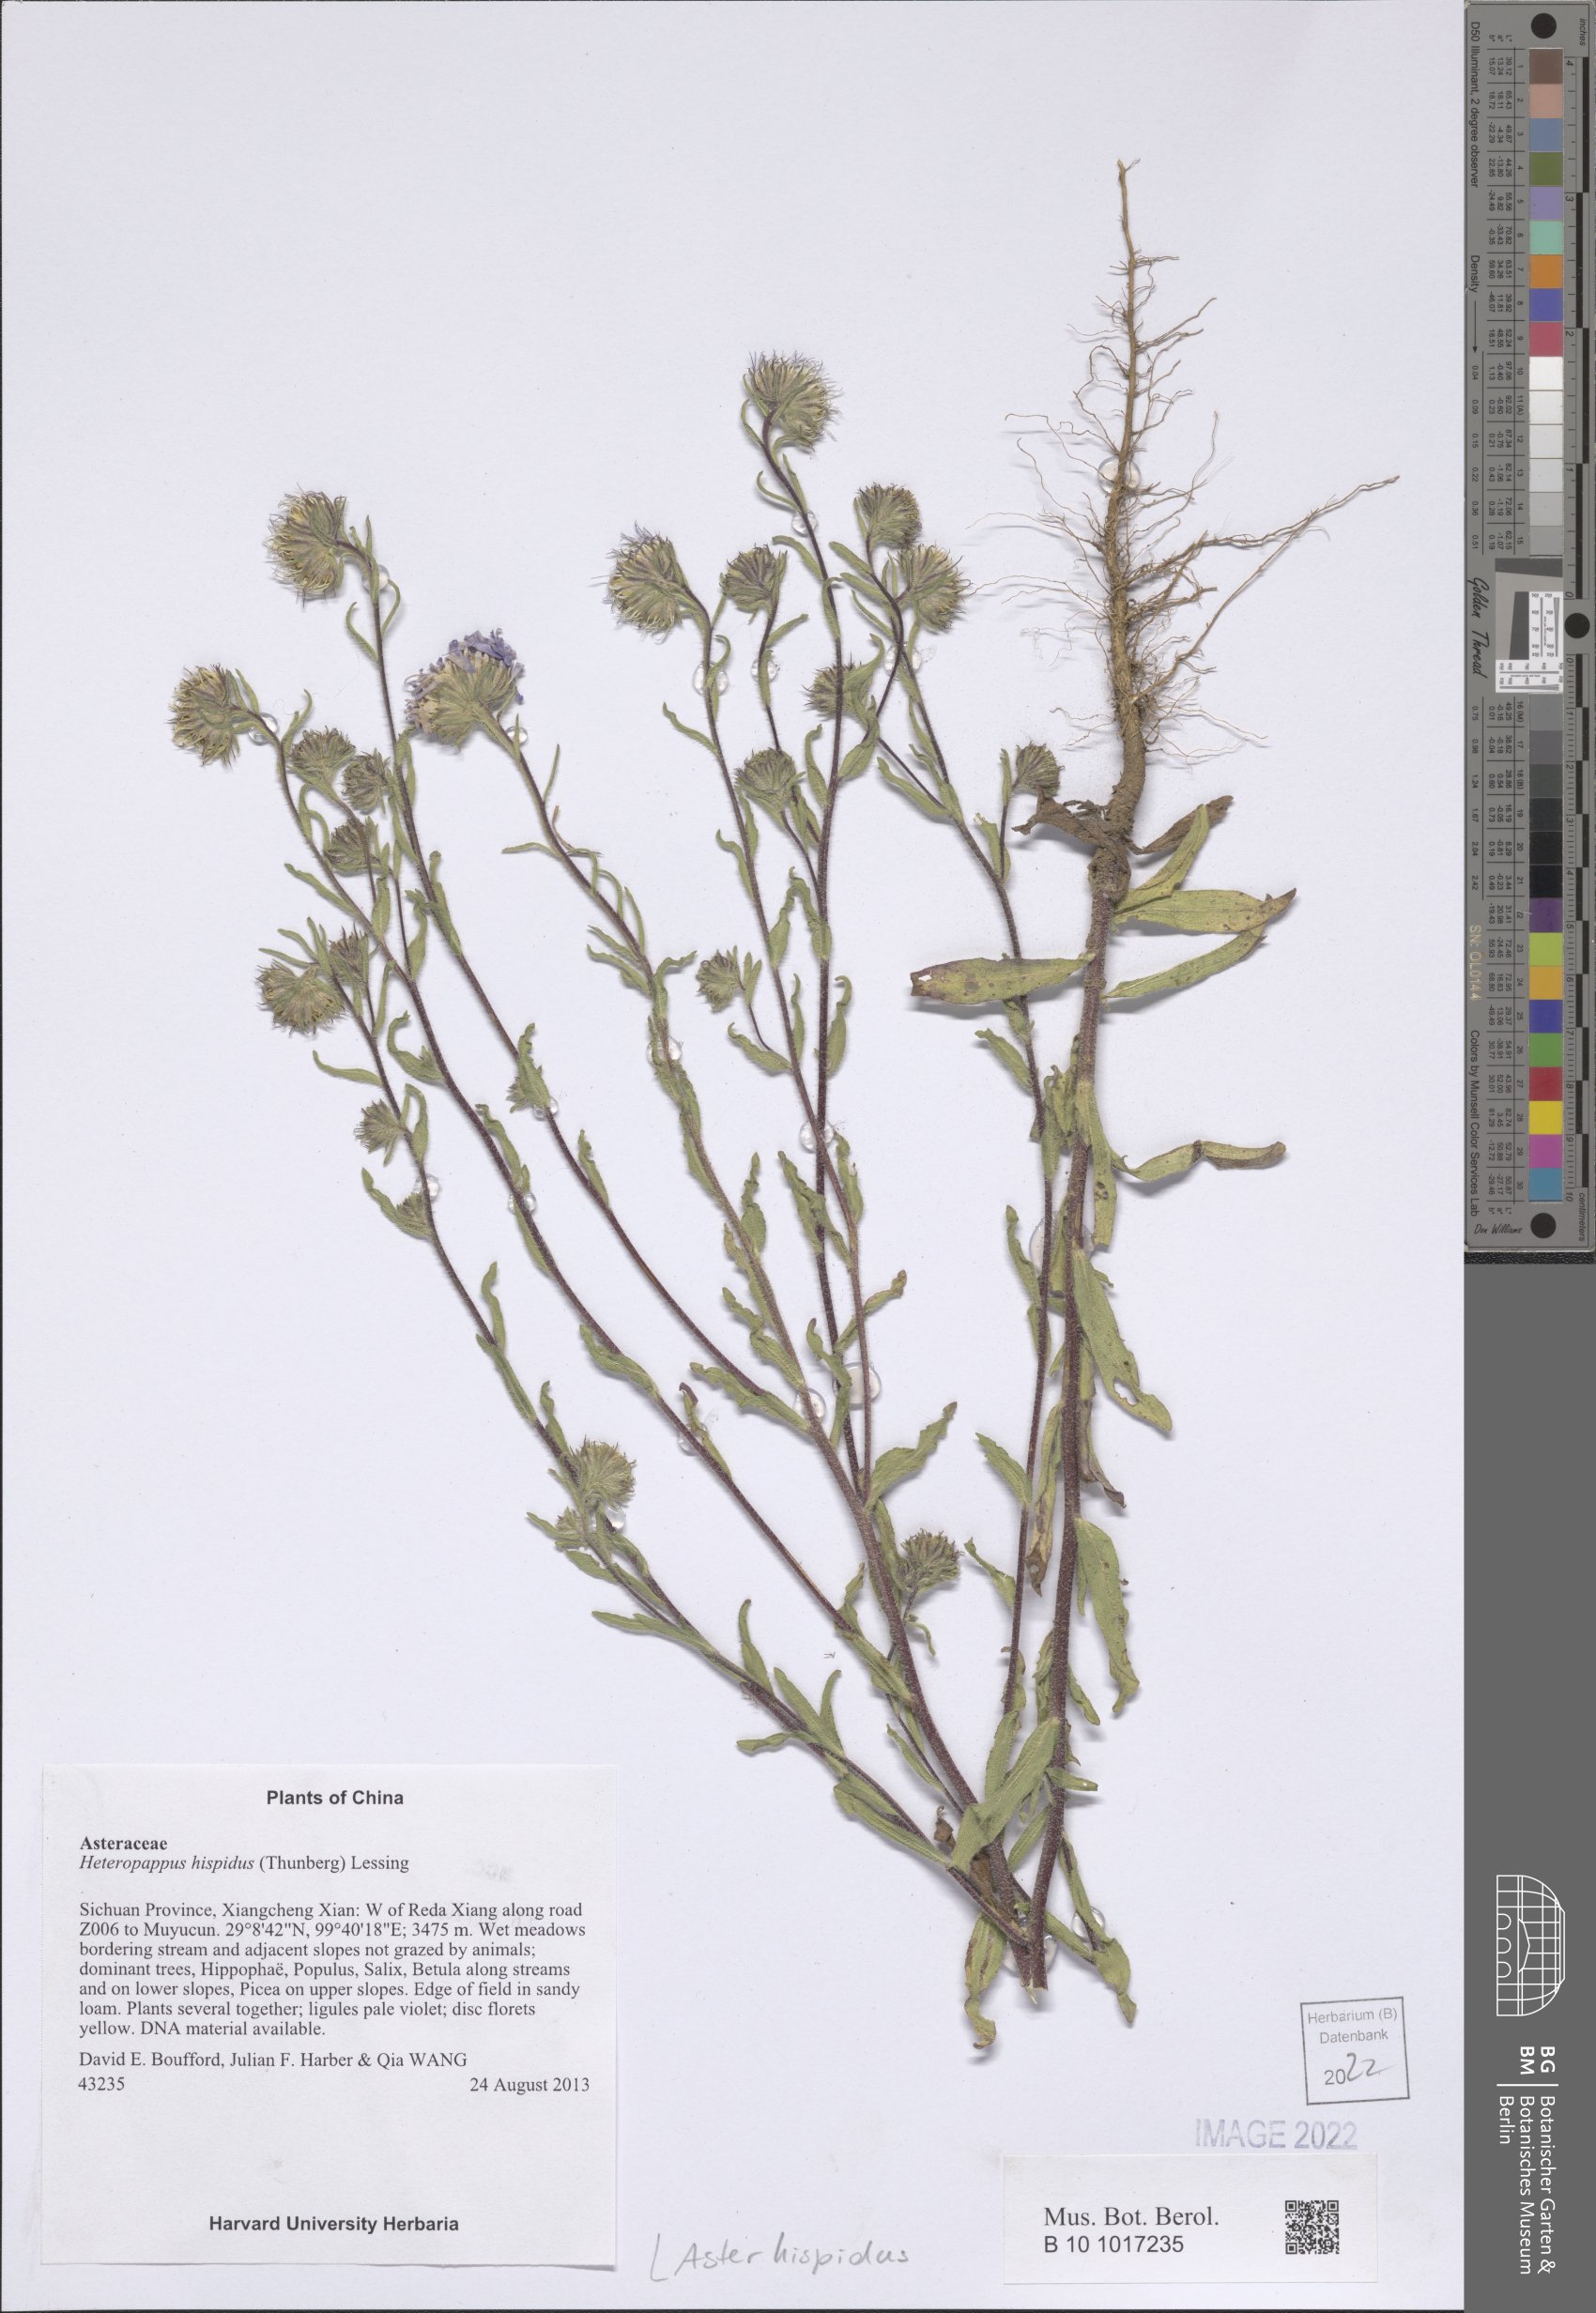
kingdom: Plantae
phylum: Tracheophyta
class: Magnoliopsida
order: Asterales
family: Asteraceae
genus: Afroaster
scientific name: Afroaster hispidus
